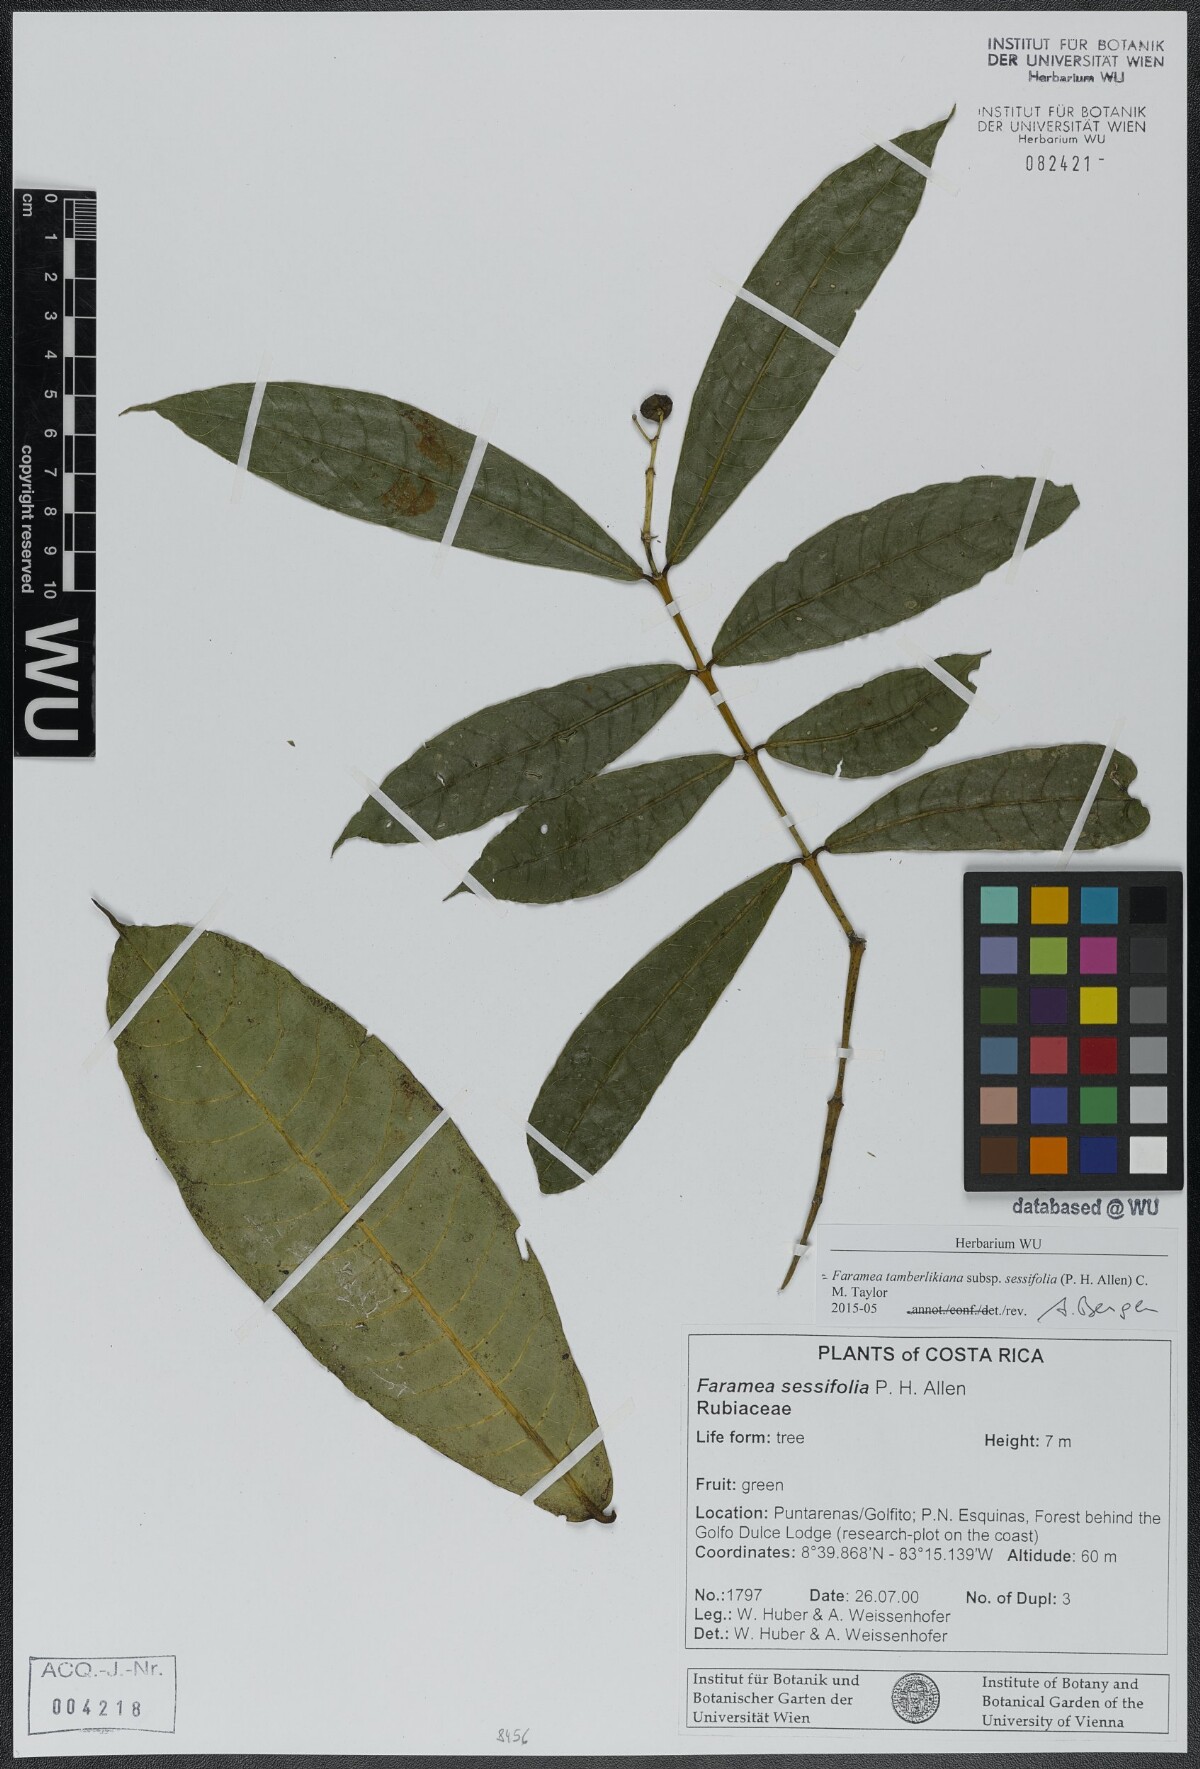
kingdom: Plantae
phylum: Tracheophyta
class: Magnoliopsida
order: Gentianales
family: Rubiaceae
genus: Faramea
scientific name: Faramea tamberlikiana
